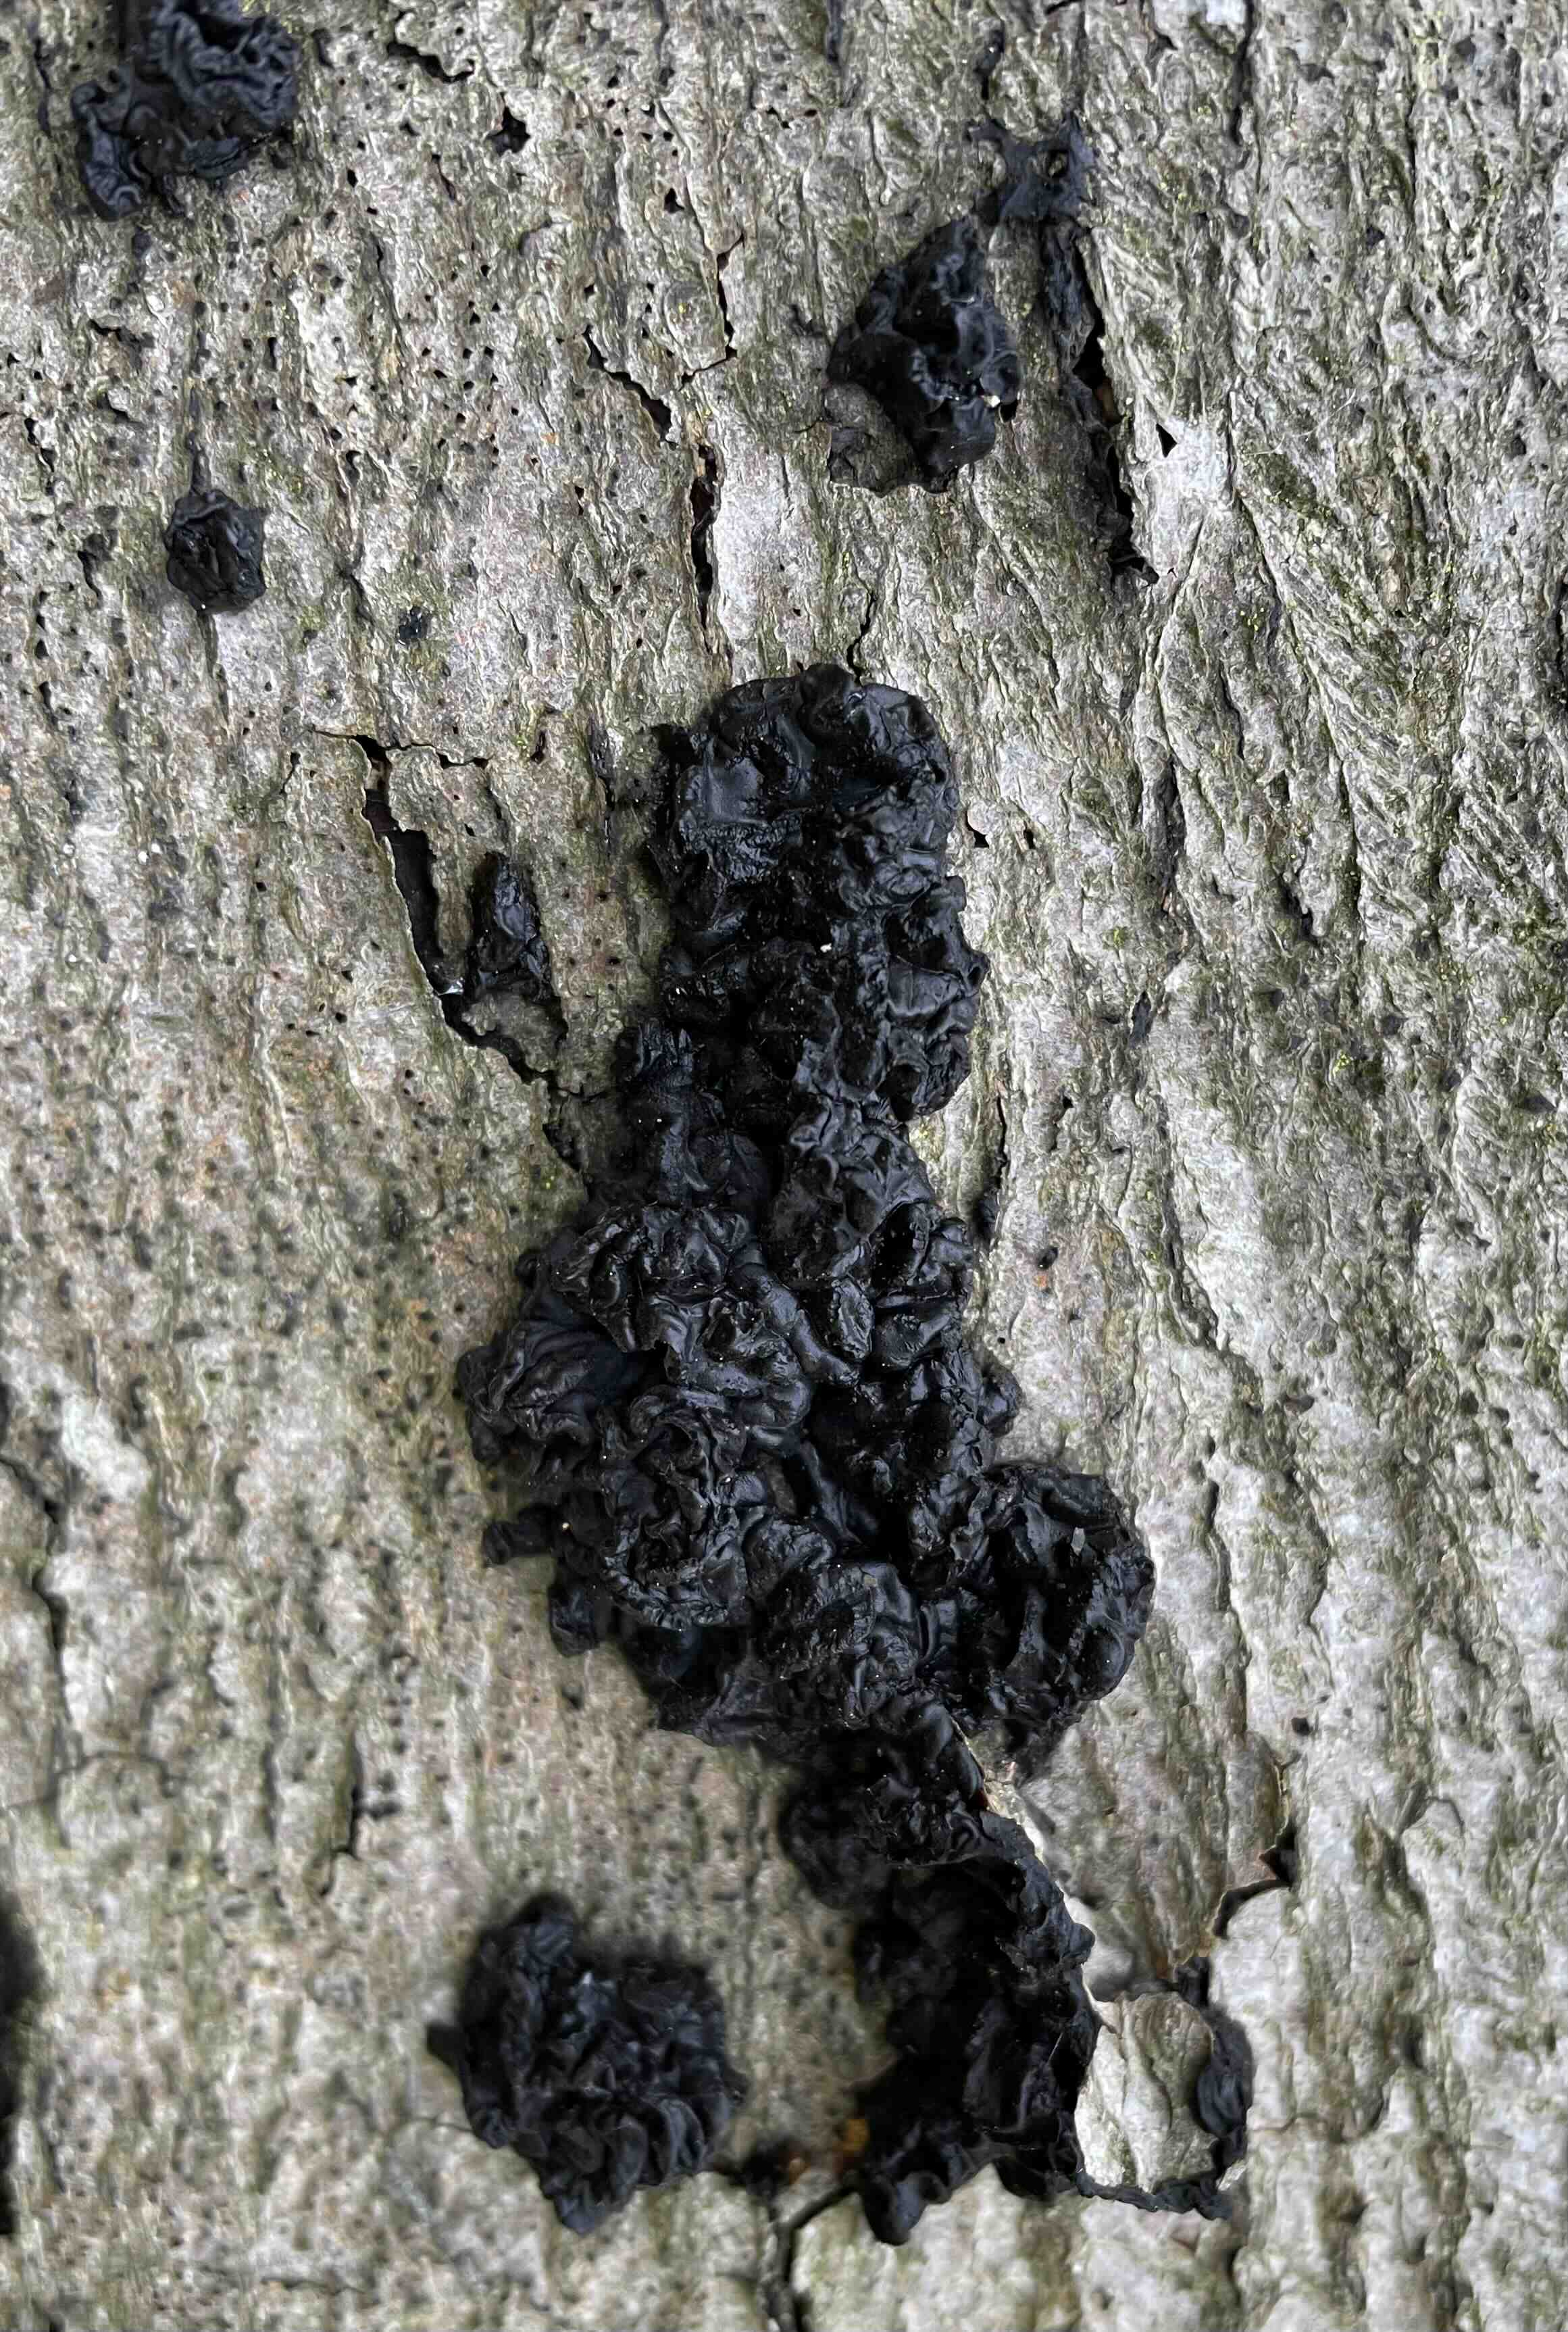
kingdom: Fungi
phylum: Basidiomycota
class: Agaricomycetes
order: Auriculariales
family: Auriculariaceae
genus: Exidia
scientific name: Exidia nigricans
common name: almindelig bævretop
